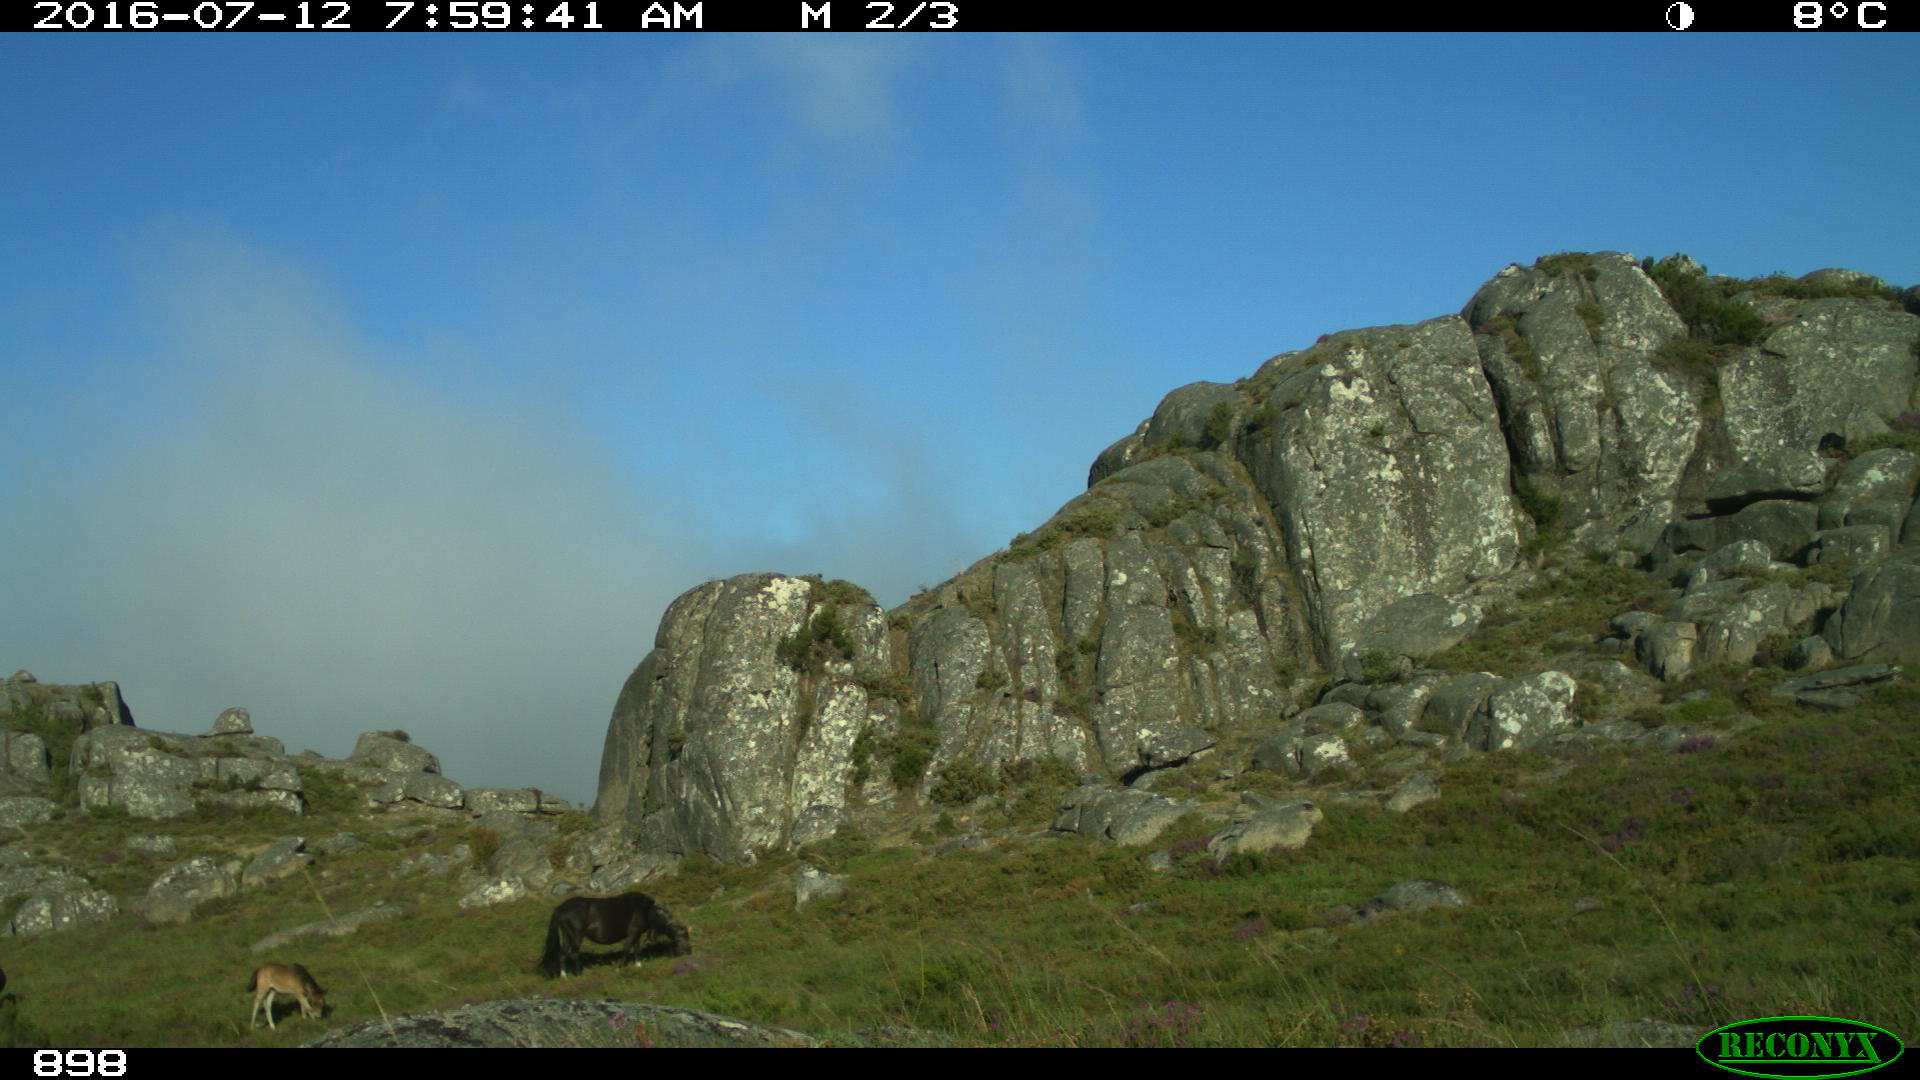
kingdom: Animalia
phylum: Chordata
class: Mammalia
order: Perissodactyla
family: Equidae
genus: Equus
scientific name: Equus caballus
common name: Horse
